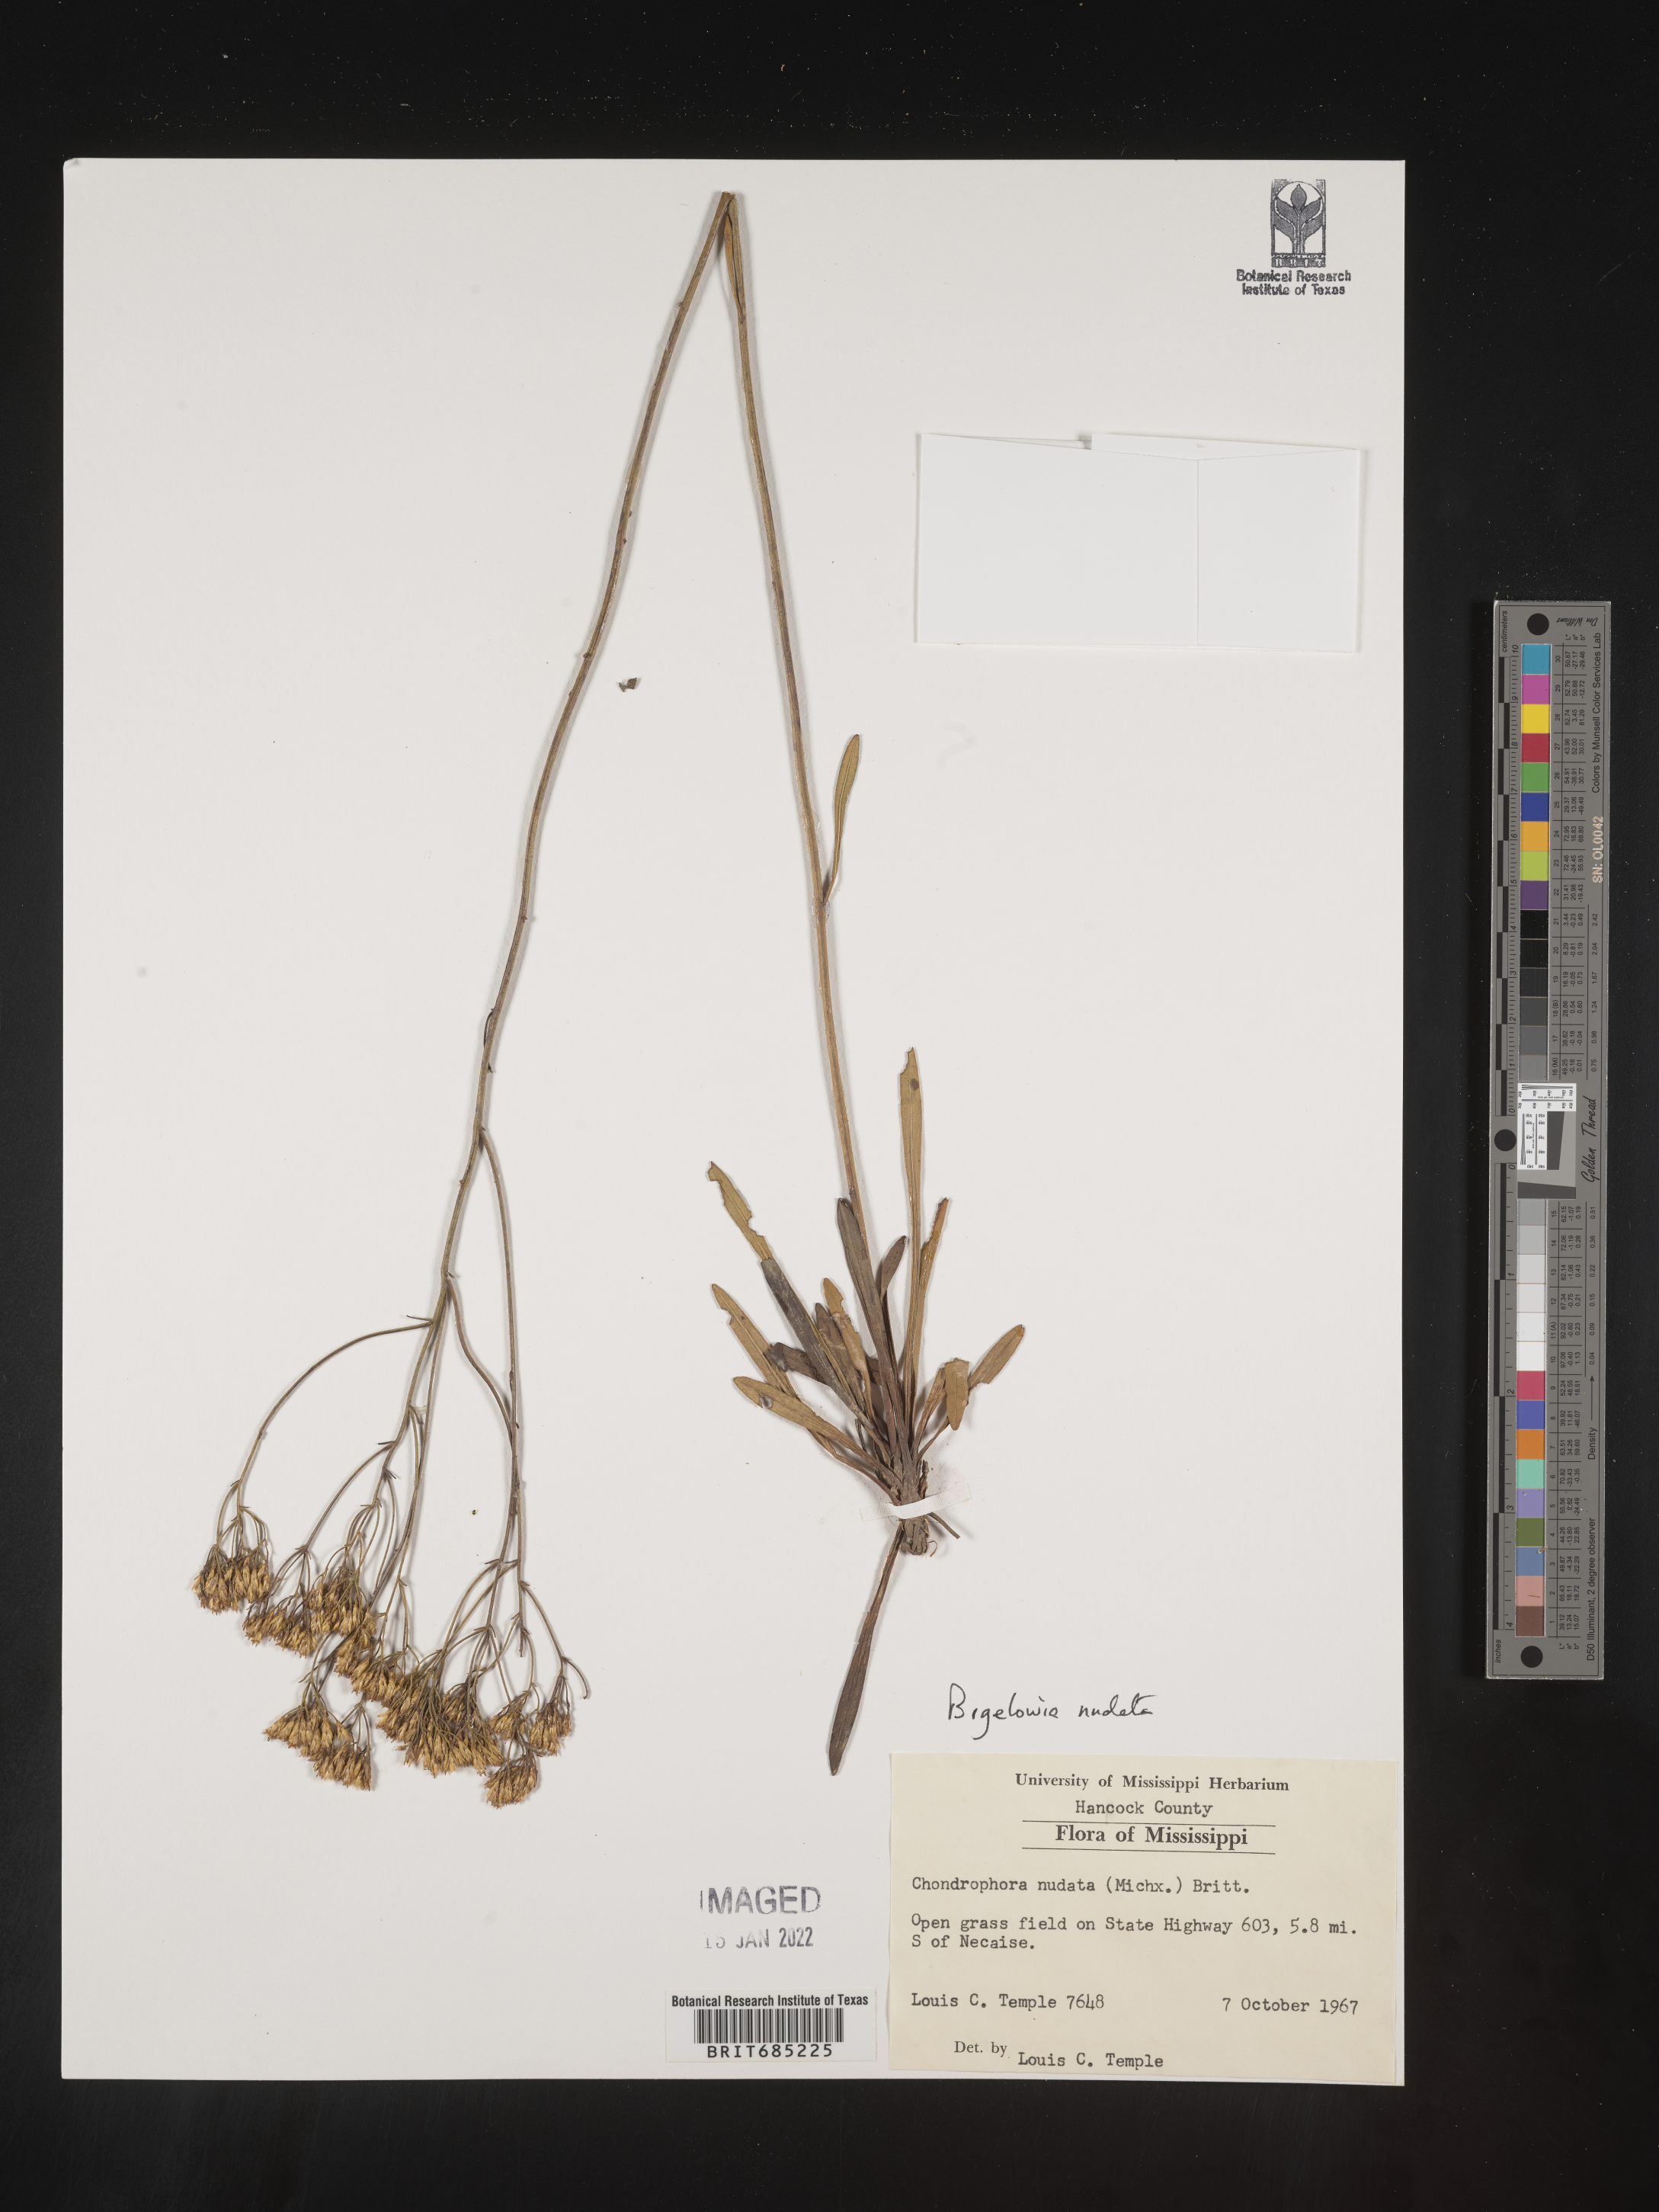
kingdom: Plantae
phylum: Tracheophyta
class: Magnoliopsida
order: Asterales
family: Asteraceae
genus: Bigelowia
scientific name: Bigelowia nudata
